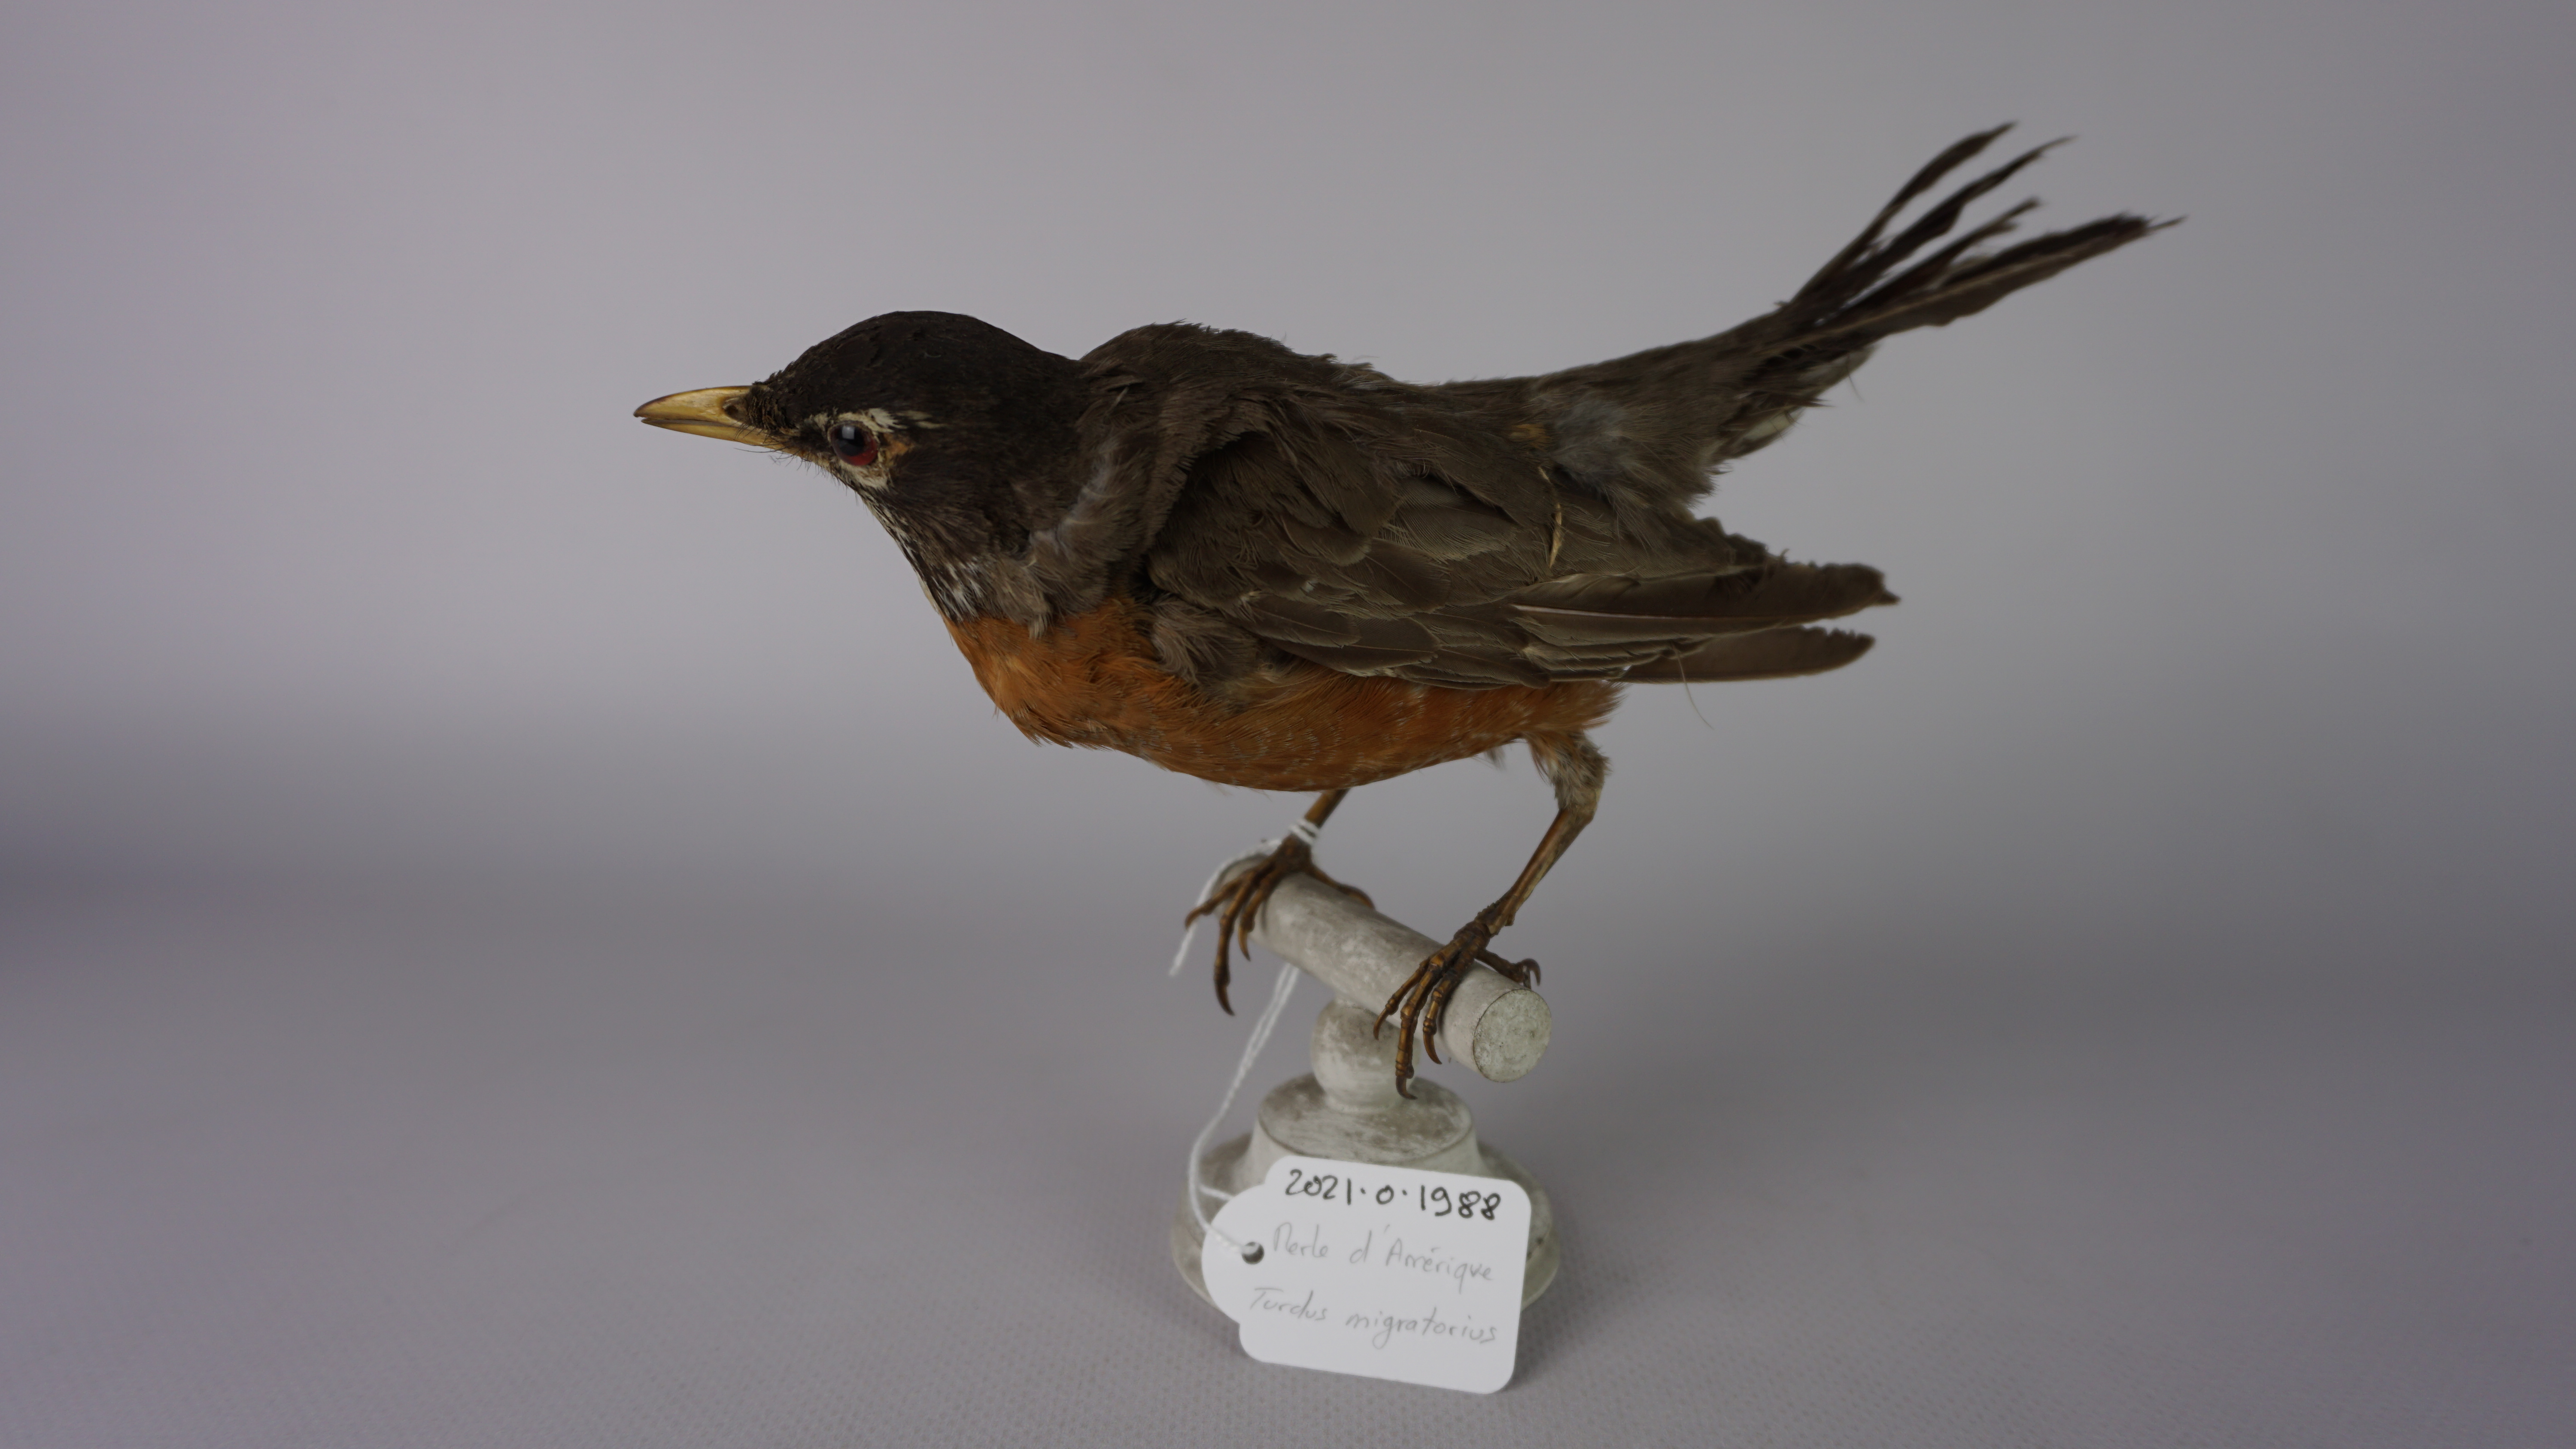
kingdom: Animalia
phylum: Chordata
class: Aves
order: Passeriformes
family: Turdidae
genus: Turdus
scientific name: Turdus migratorius
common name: American robin
